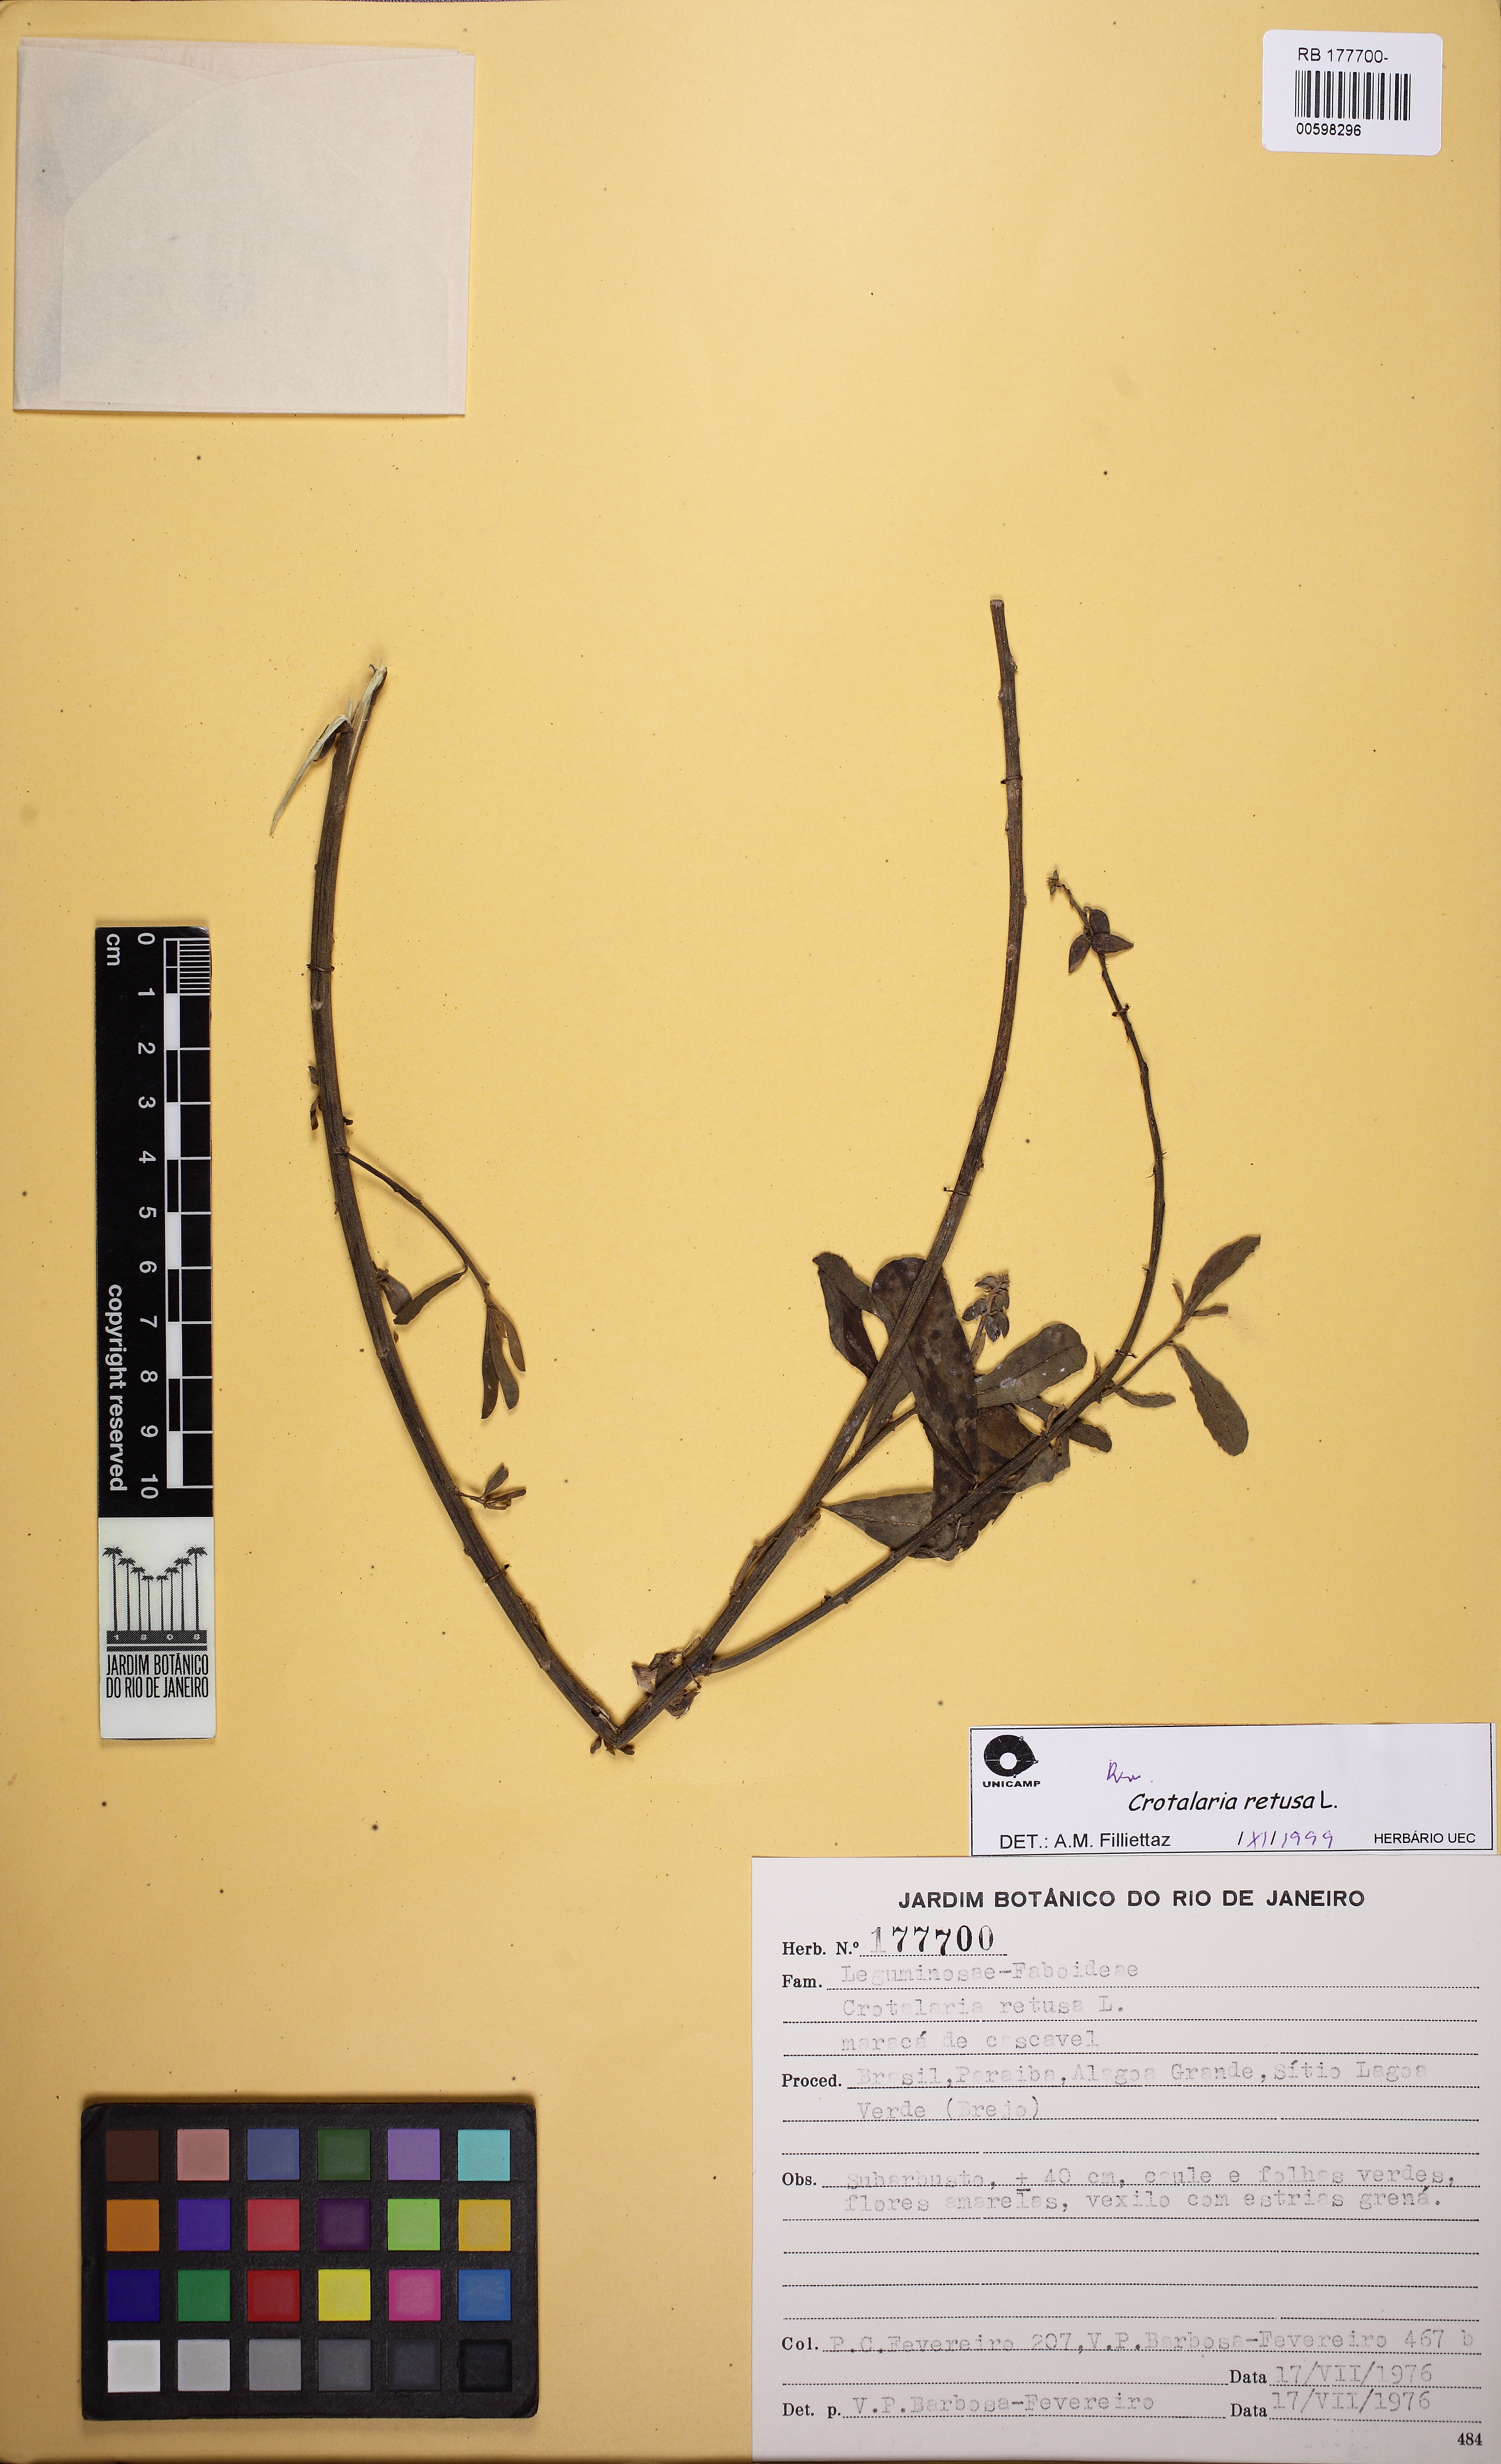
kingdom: Plantae
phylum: Tracheophyta
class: Magnoliopsida
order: Fabales
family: Fabaceae
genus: Crotalaria
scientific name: Crotalaria retusa
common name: Rattleweed
